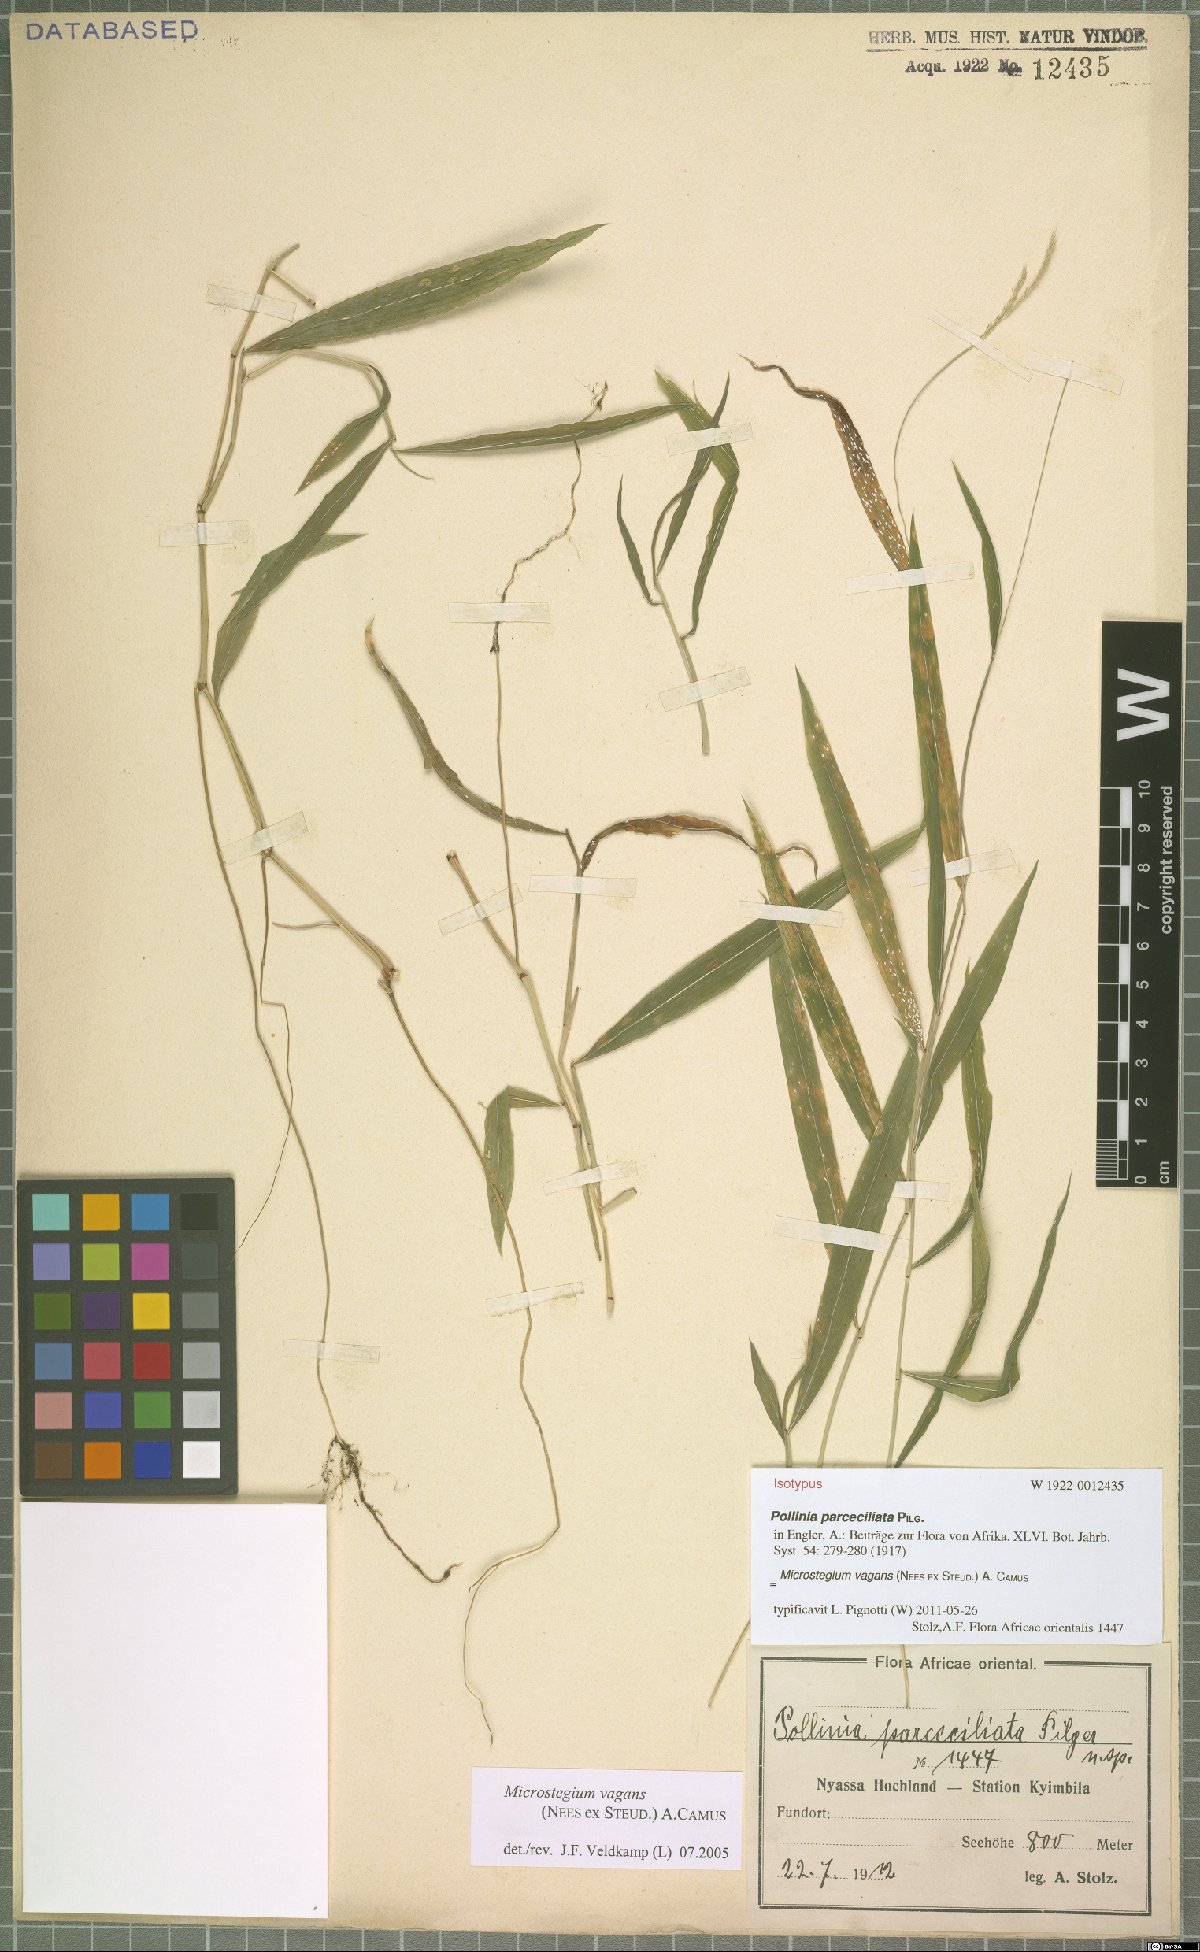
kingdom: Plantae
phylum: Tracheophyta
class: Liliopsida
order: Poales
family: Poaceae
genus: Microstegium
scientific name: Microstegium fasciculatum
